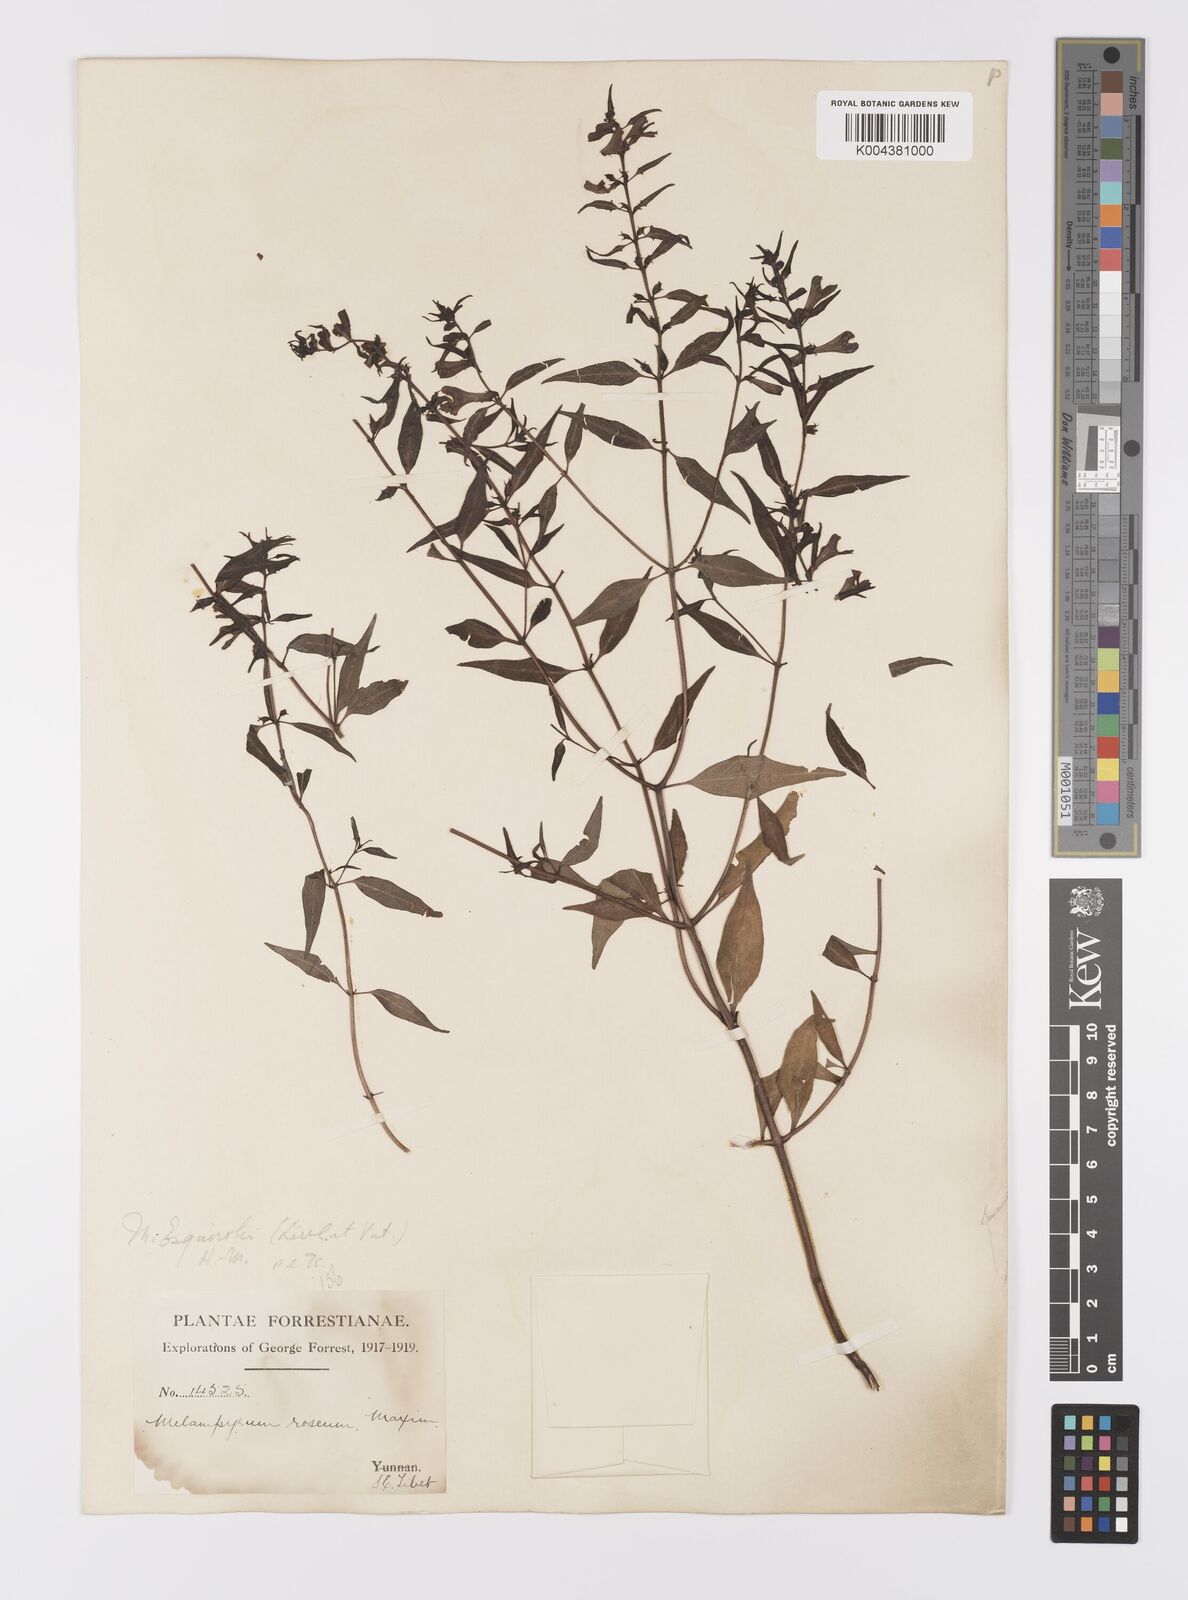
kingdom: Plantae
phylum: Tracheophyta
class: Magnoliopsida
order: Lamiales
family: Orobanchaceae
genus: Melampyrum
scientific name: Melampyrum roseum
